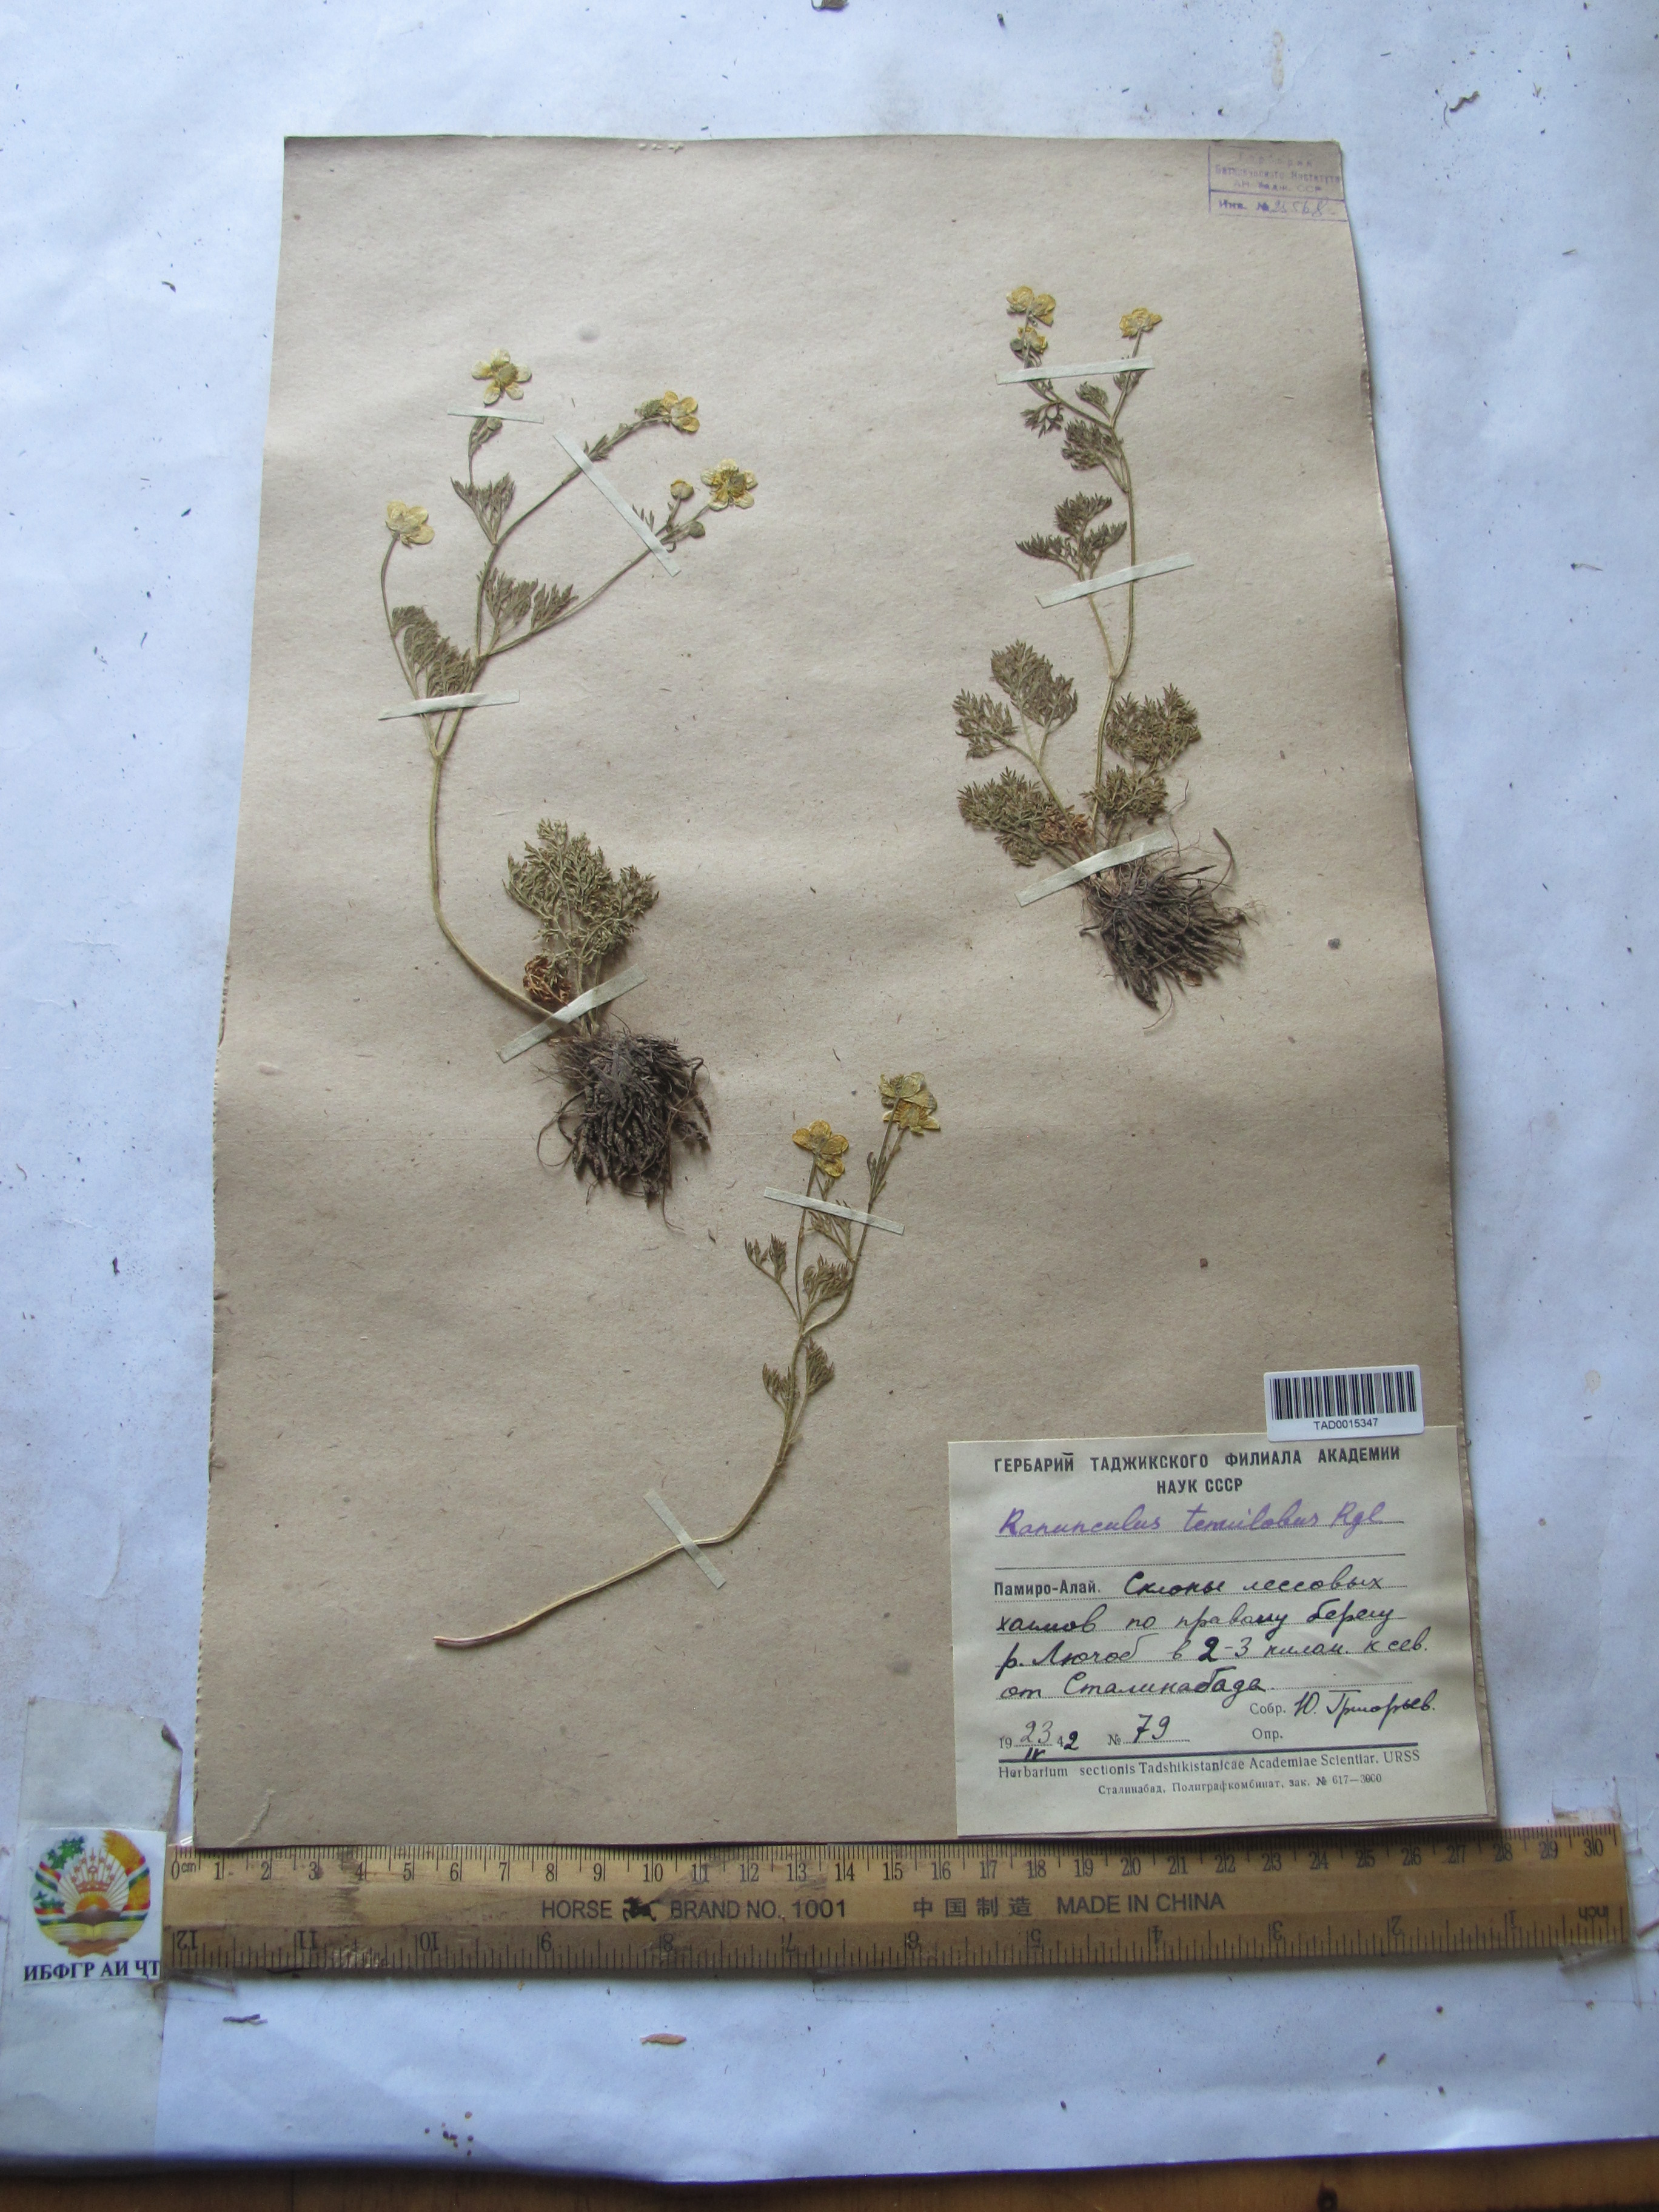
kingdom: Plantae
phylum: Tracheophyta
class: Magnoliopsida
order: Ranunculales
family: Ranunculaceae
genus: Ranunculus
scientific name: Ranunculus tenuilobus
